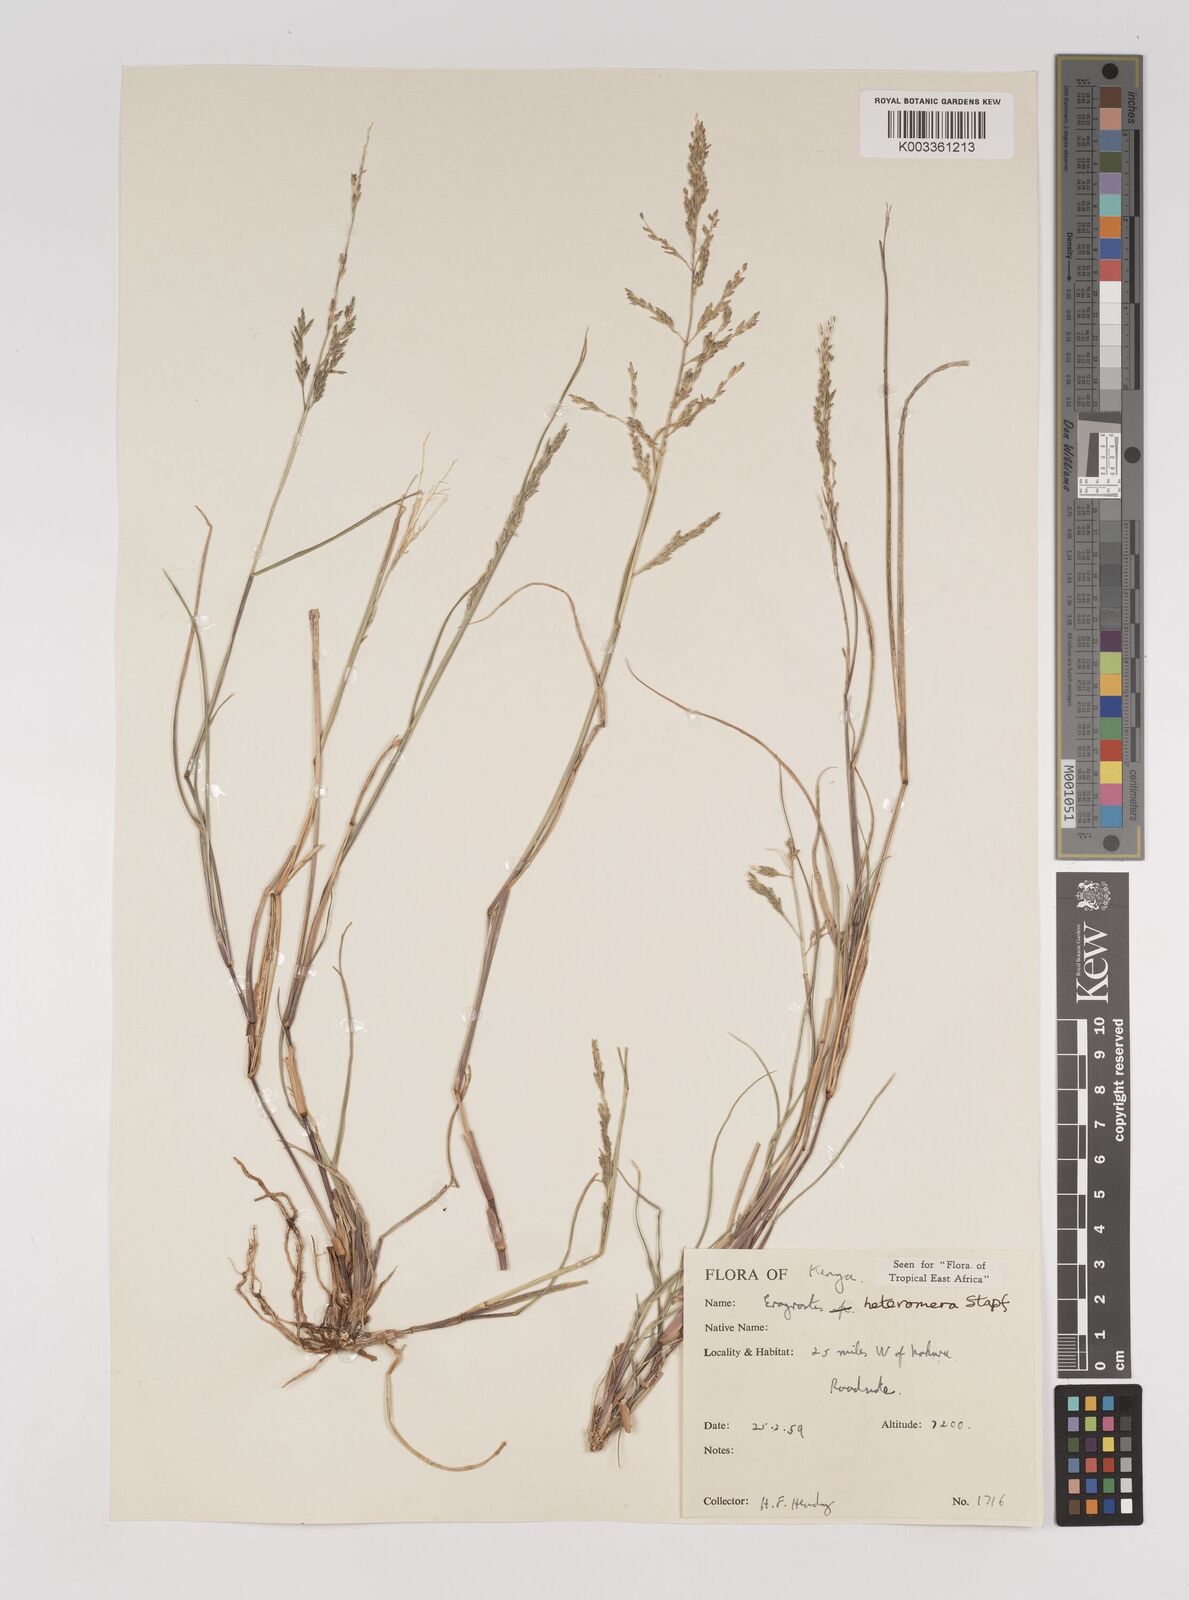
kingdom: Plantae
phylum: Tracheophyta
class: Liliopsida
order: Poales
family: Poaceae
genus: Eragrostis
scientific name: Eragrostis heteromera
